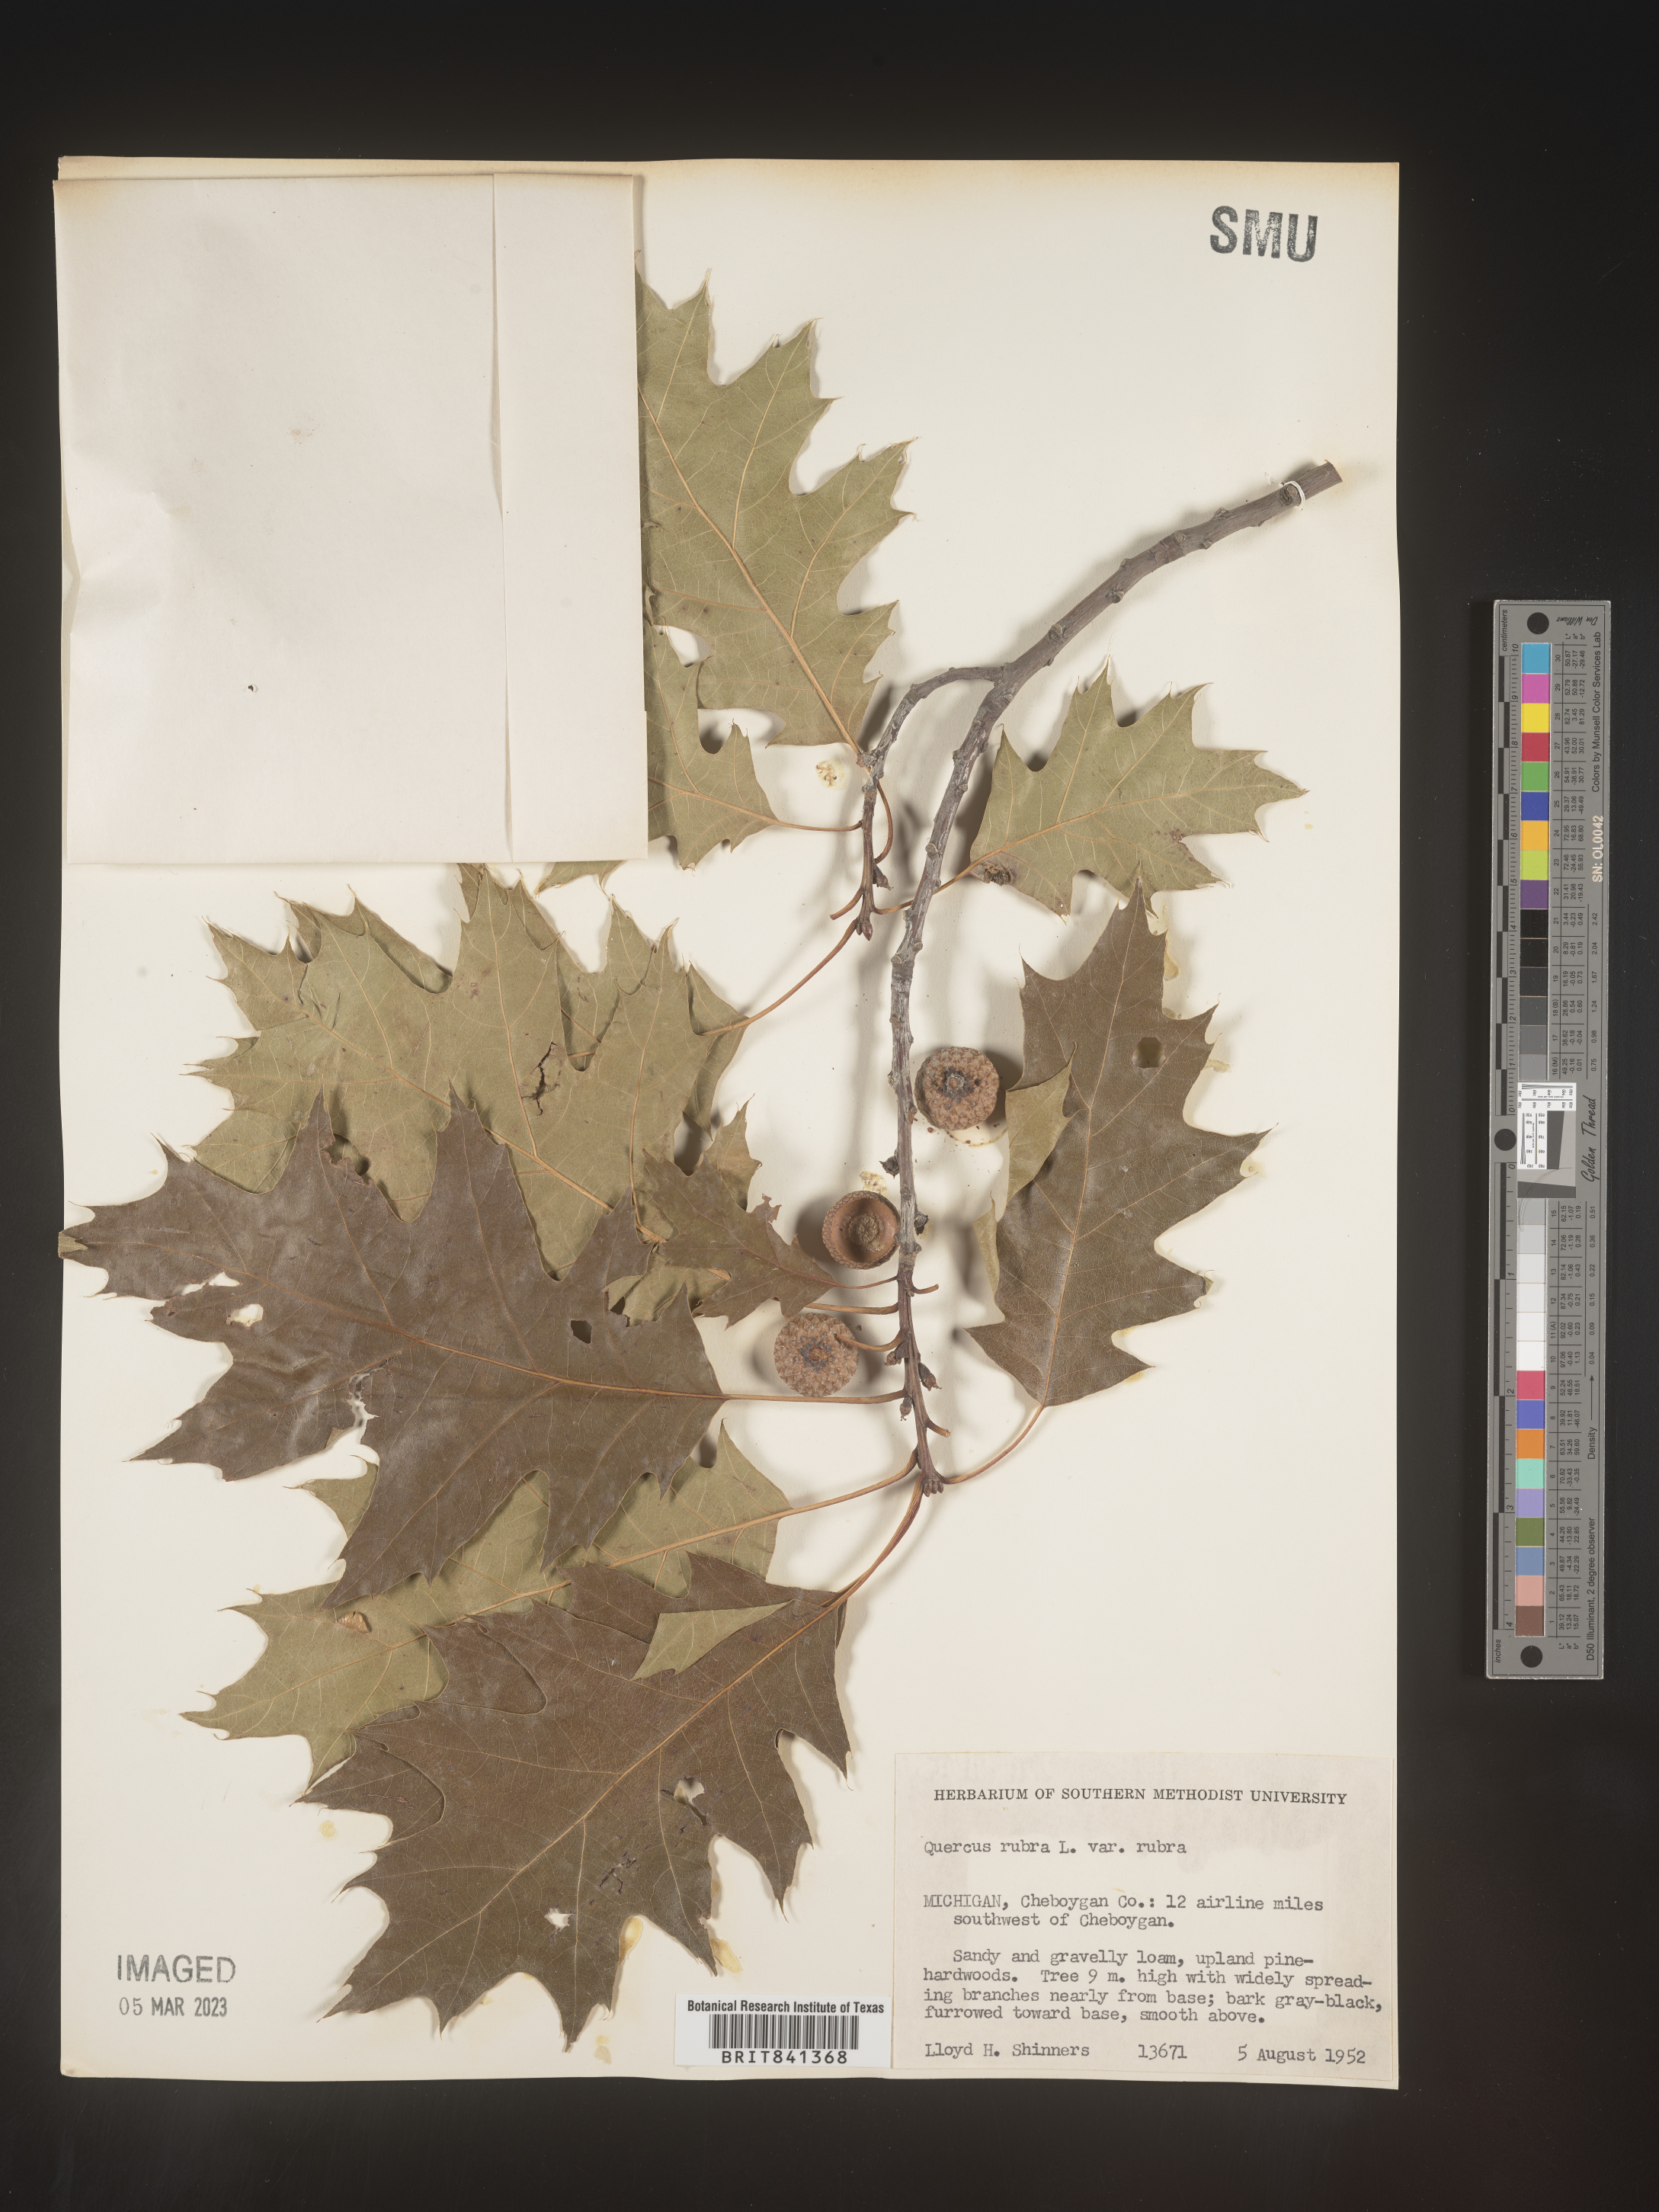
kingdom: Plantae
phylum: Tracheophyta
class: Magnoliopsida
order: Fagales
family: Fagaceae
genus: Quercus
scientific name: Quercus rubra
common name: Red oak
